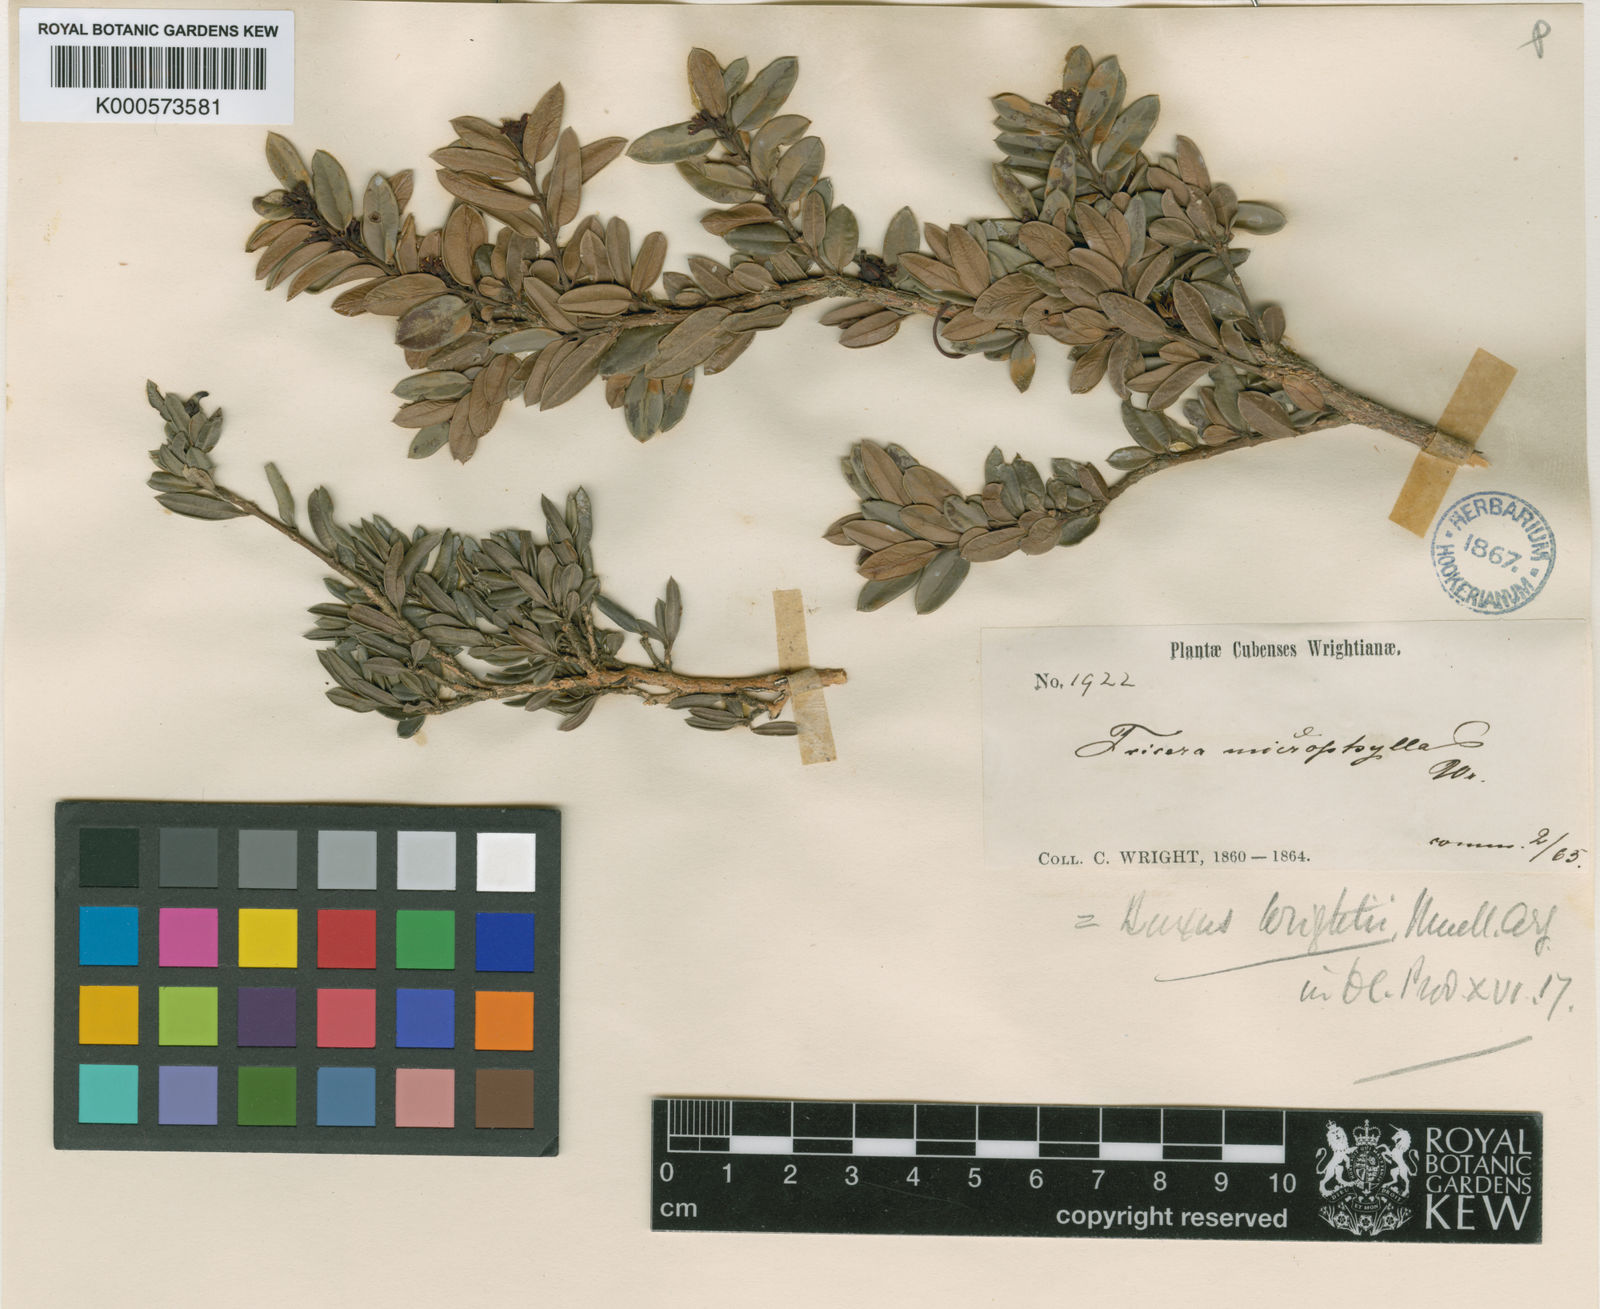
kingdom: Plantae
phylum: Tracheophyta
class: Magnoliopsida
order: Buxales
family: Buxaceae
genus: Buxus
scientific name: Buxus
